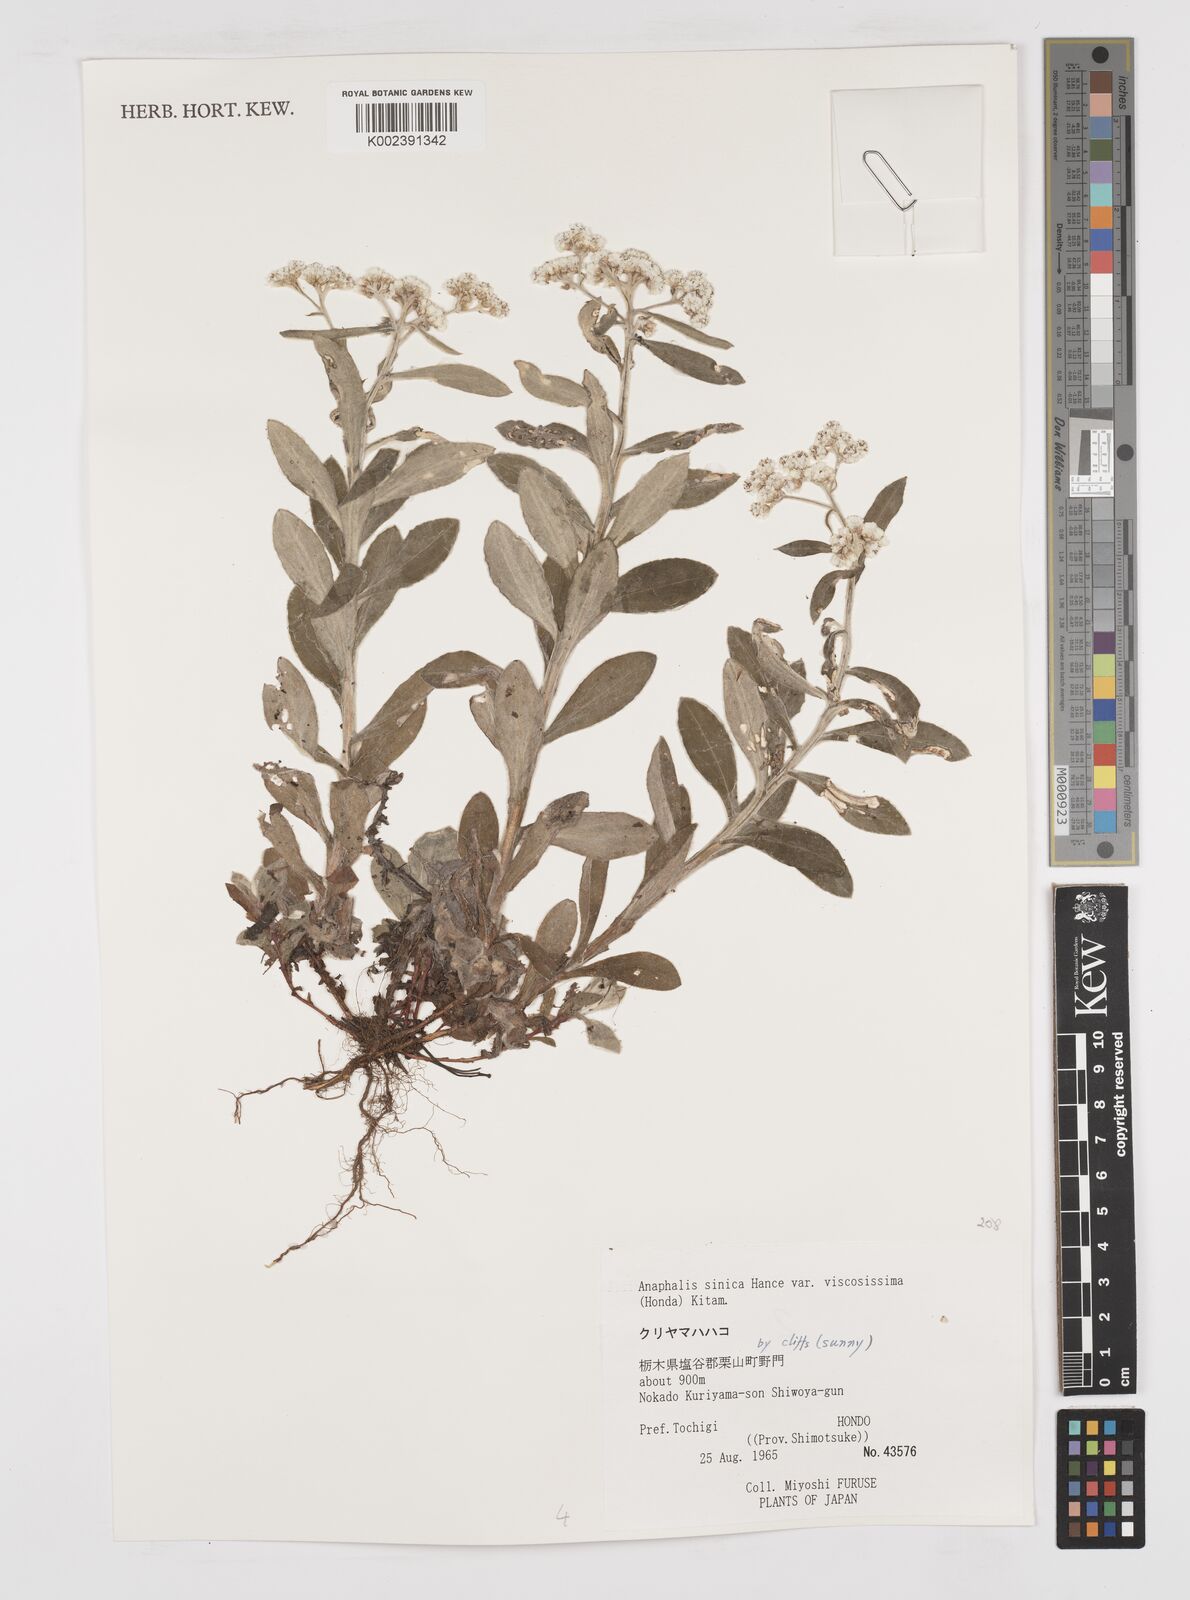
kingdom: Plantae
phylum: Tracheophyta
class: Magnoliopsida
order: Asterales
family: Asteraceae
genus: Anaphalis
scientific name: Anaphalis sinica
